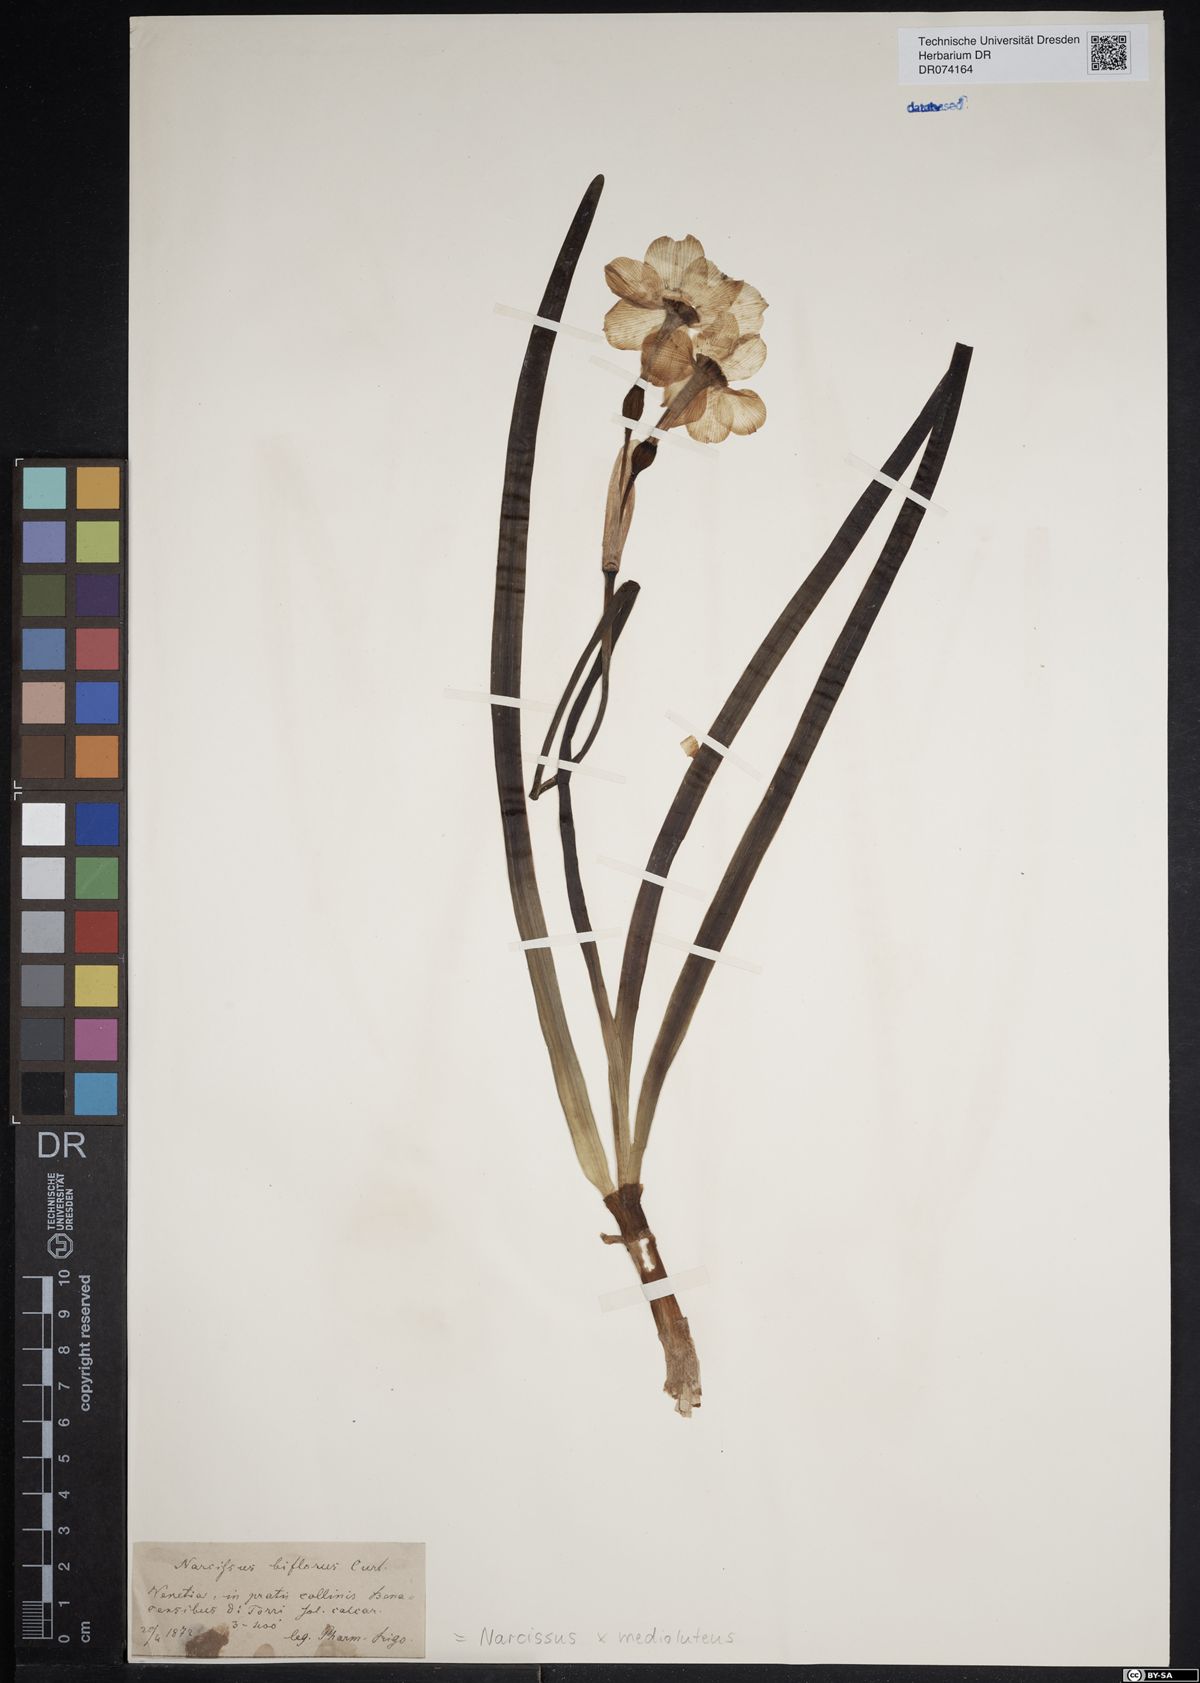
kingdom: Plantae
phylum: Tracheophyta
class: Liliopsida
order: Asparagales
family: Amaryllidaceae
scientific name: Amaryllidaceae
